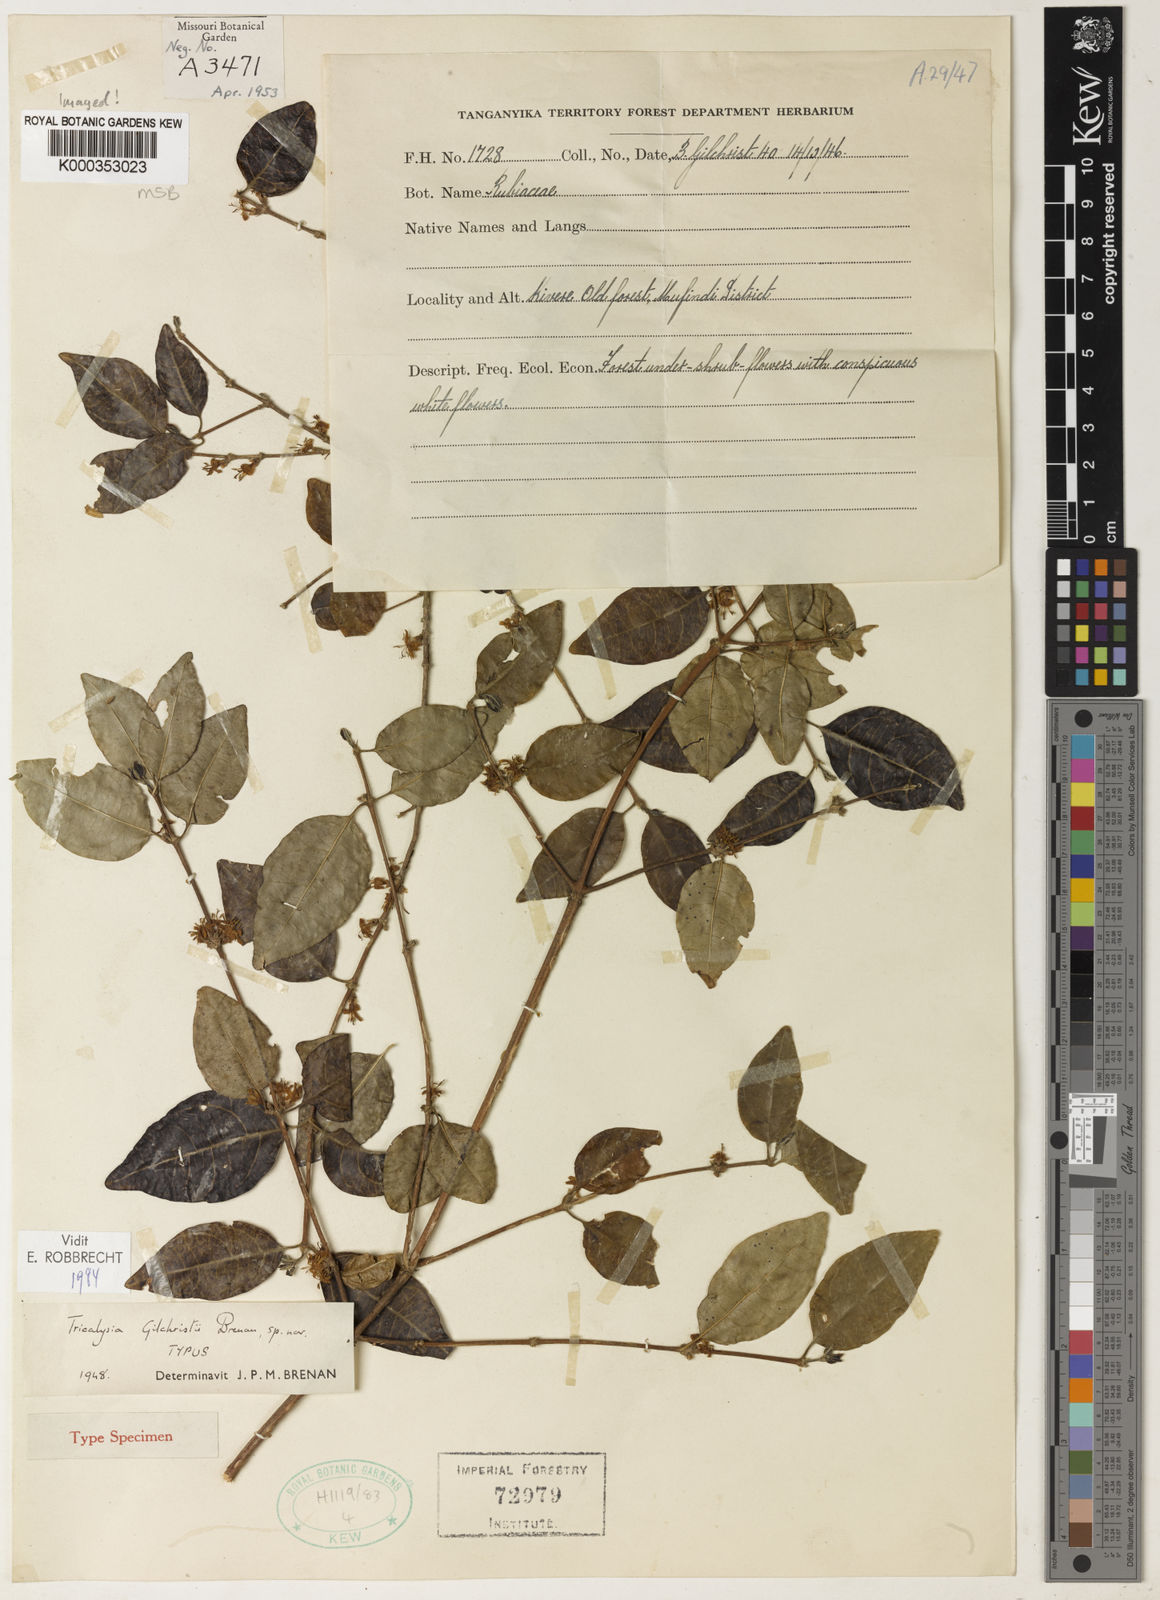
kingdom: Plantae
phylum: Tracheophyta
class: Magnoliopsida
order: Gentianales
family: Rubiaceae
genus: Tricalysia
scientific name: Tricalysia gilchristii
